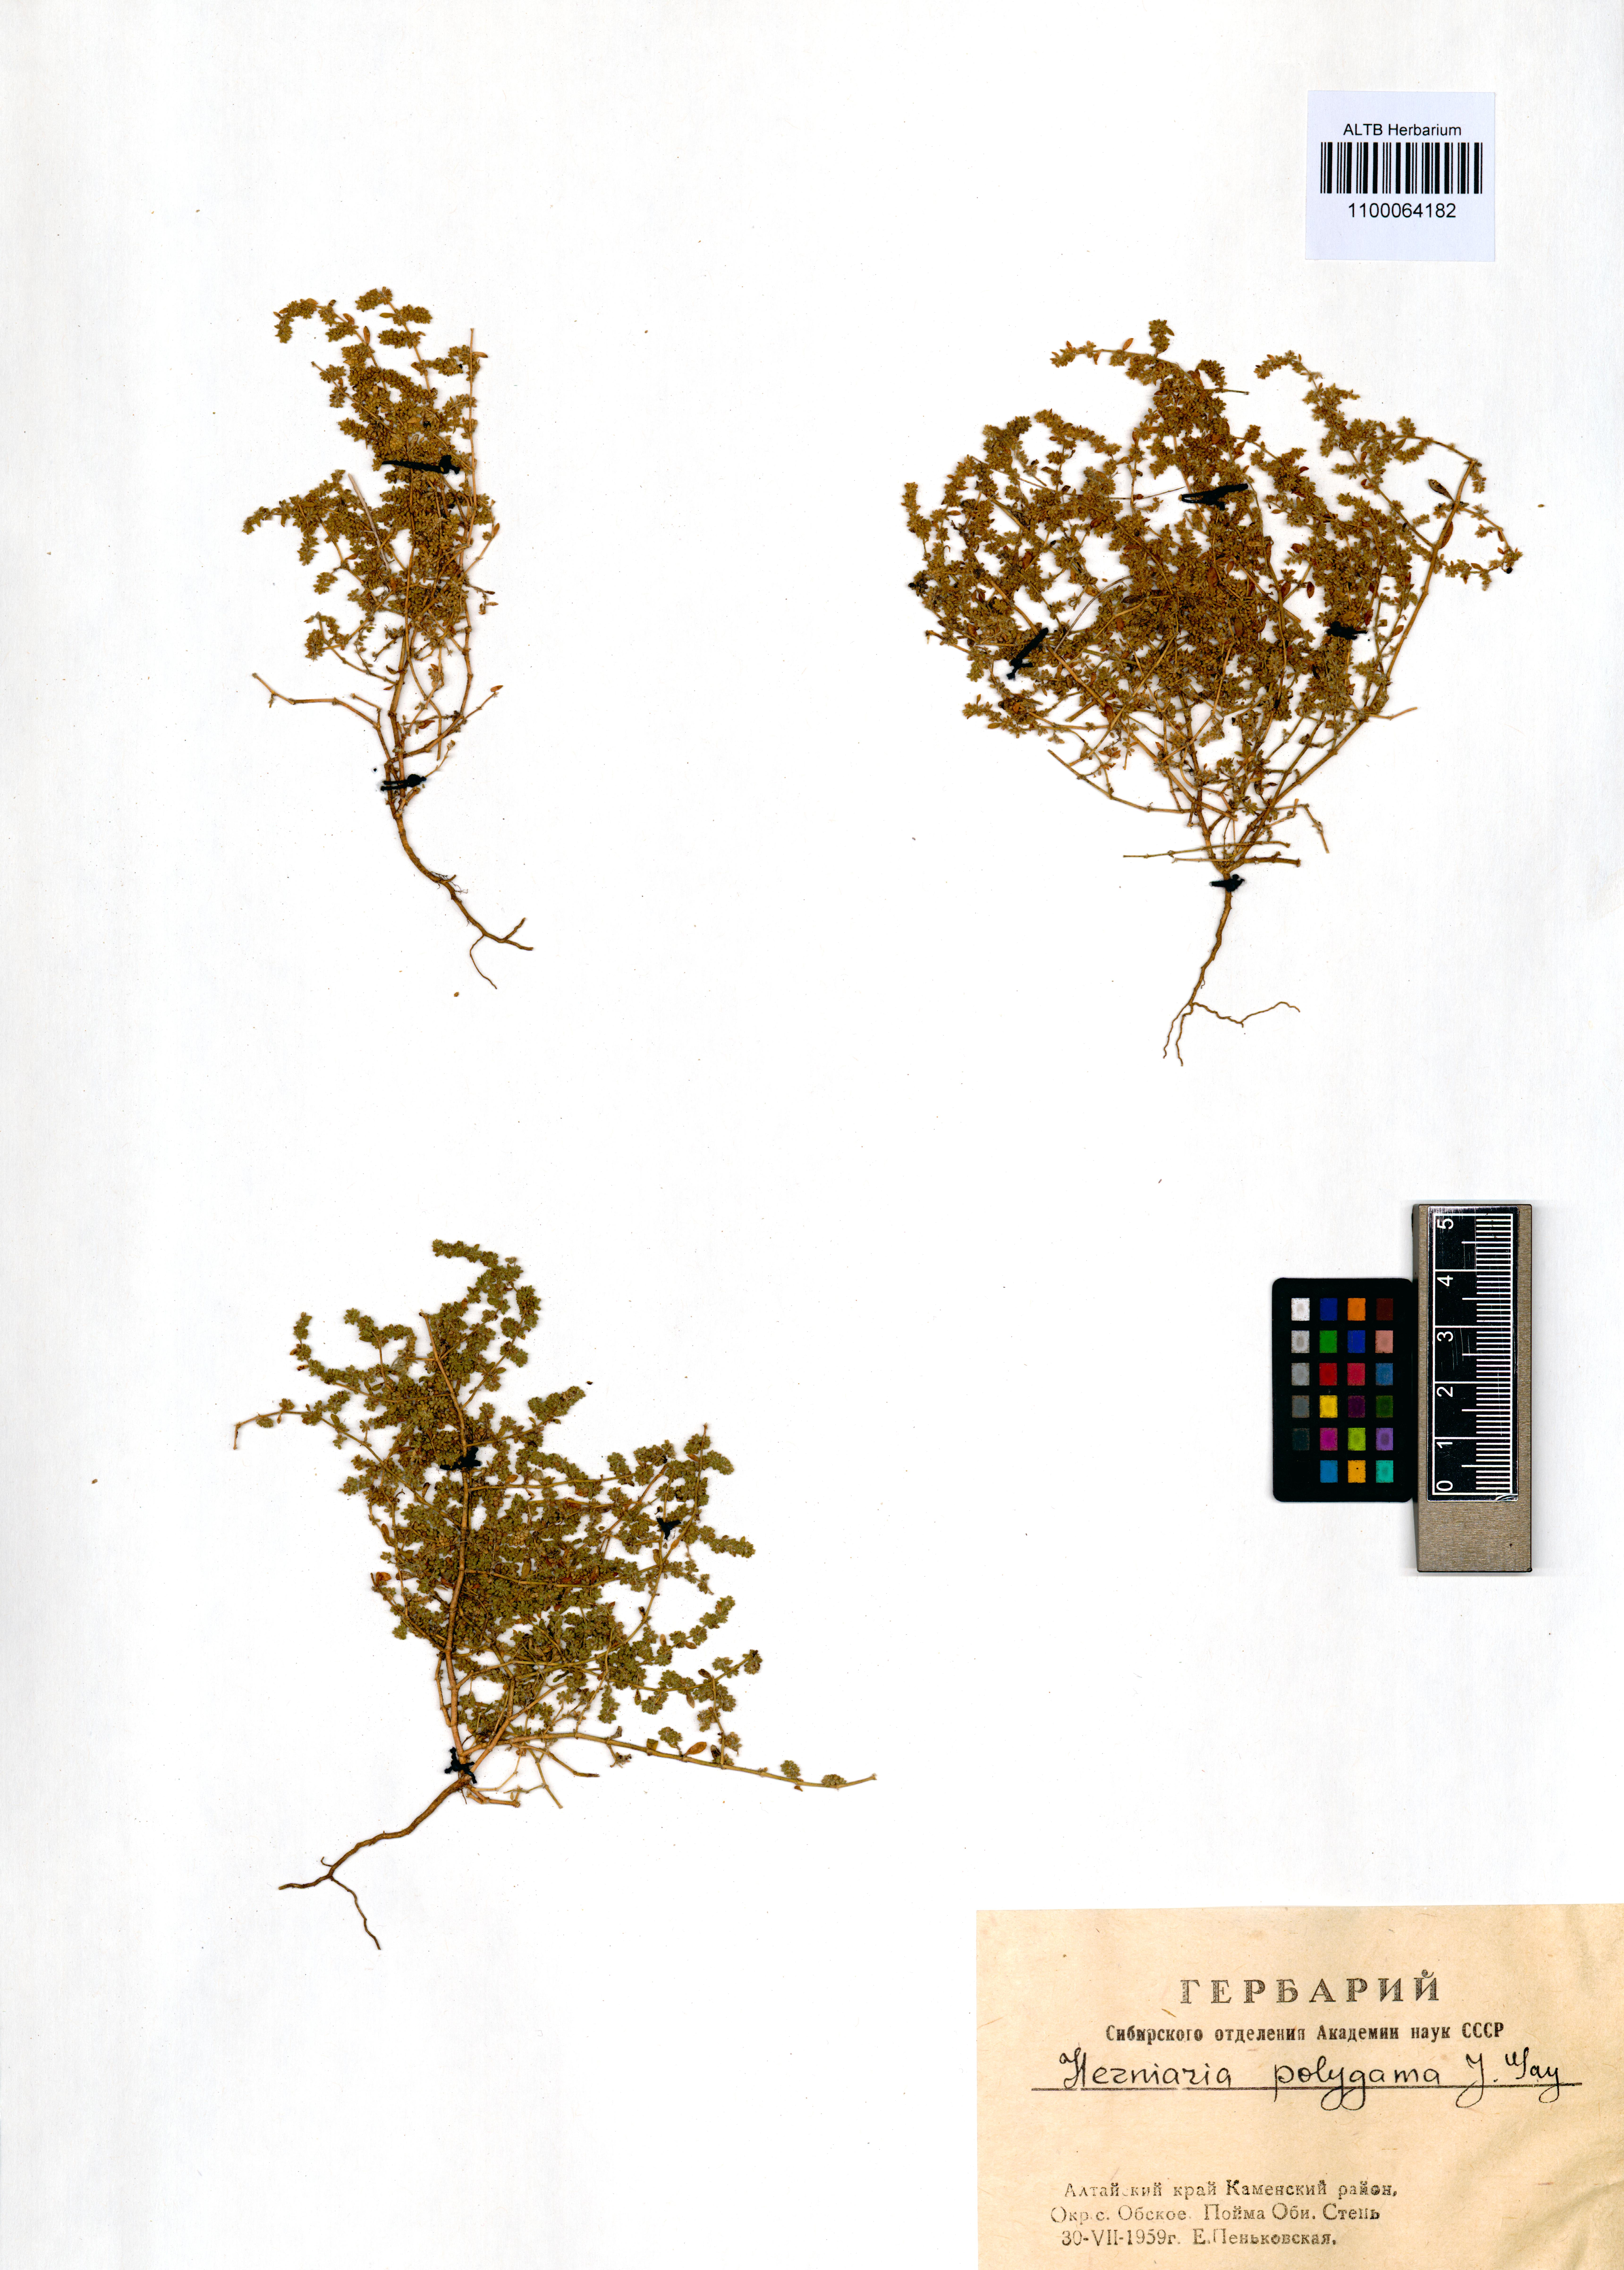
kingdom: Plantae
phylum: Tracheophyta
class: Magnoliopsida
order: Caryophyllales
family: Caryophyllaceae
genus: Herniaria
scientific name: Herniaria polygama
